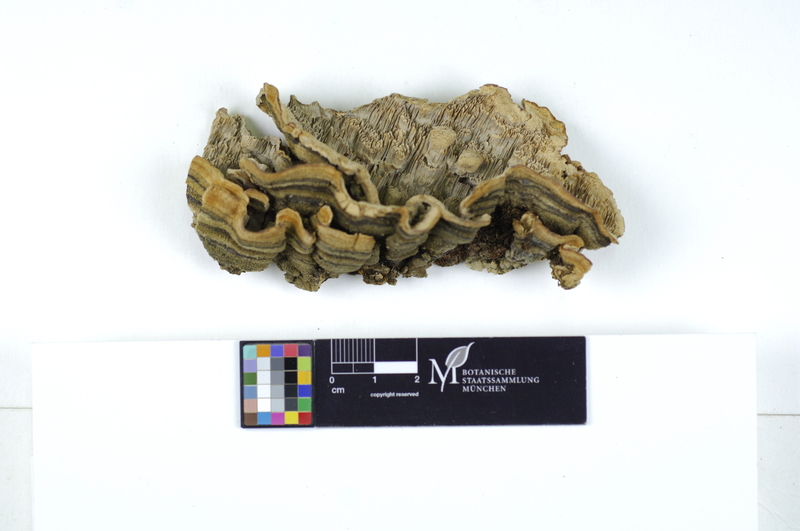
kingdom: Fungi
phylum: Basidiomycota
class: Agaricomycetes
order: Polyporales
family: Cerrenaceae
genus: Cerrena
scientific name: Cerrena unicolor
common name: Mossy maze polypore
